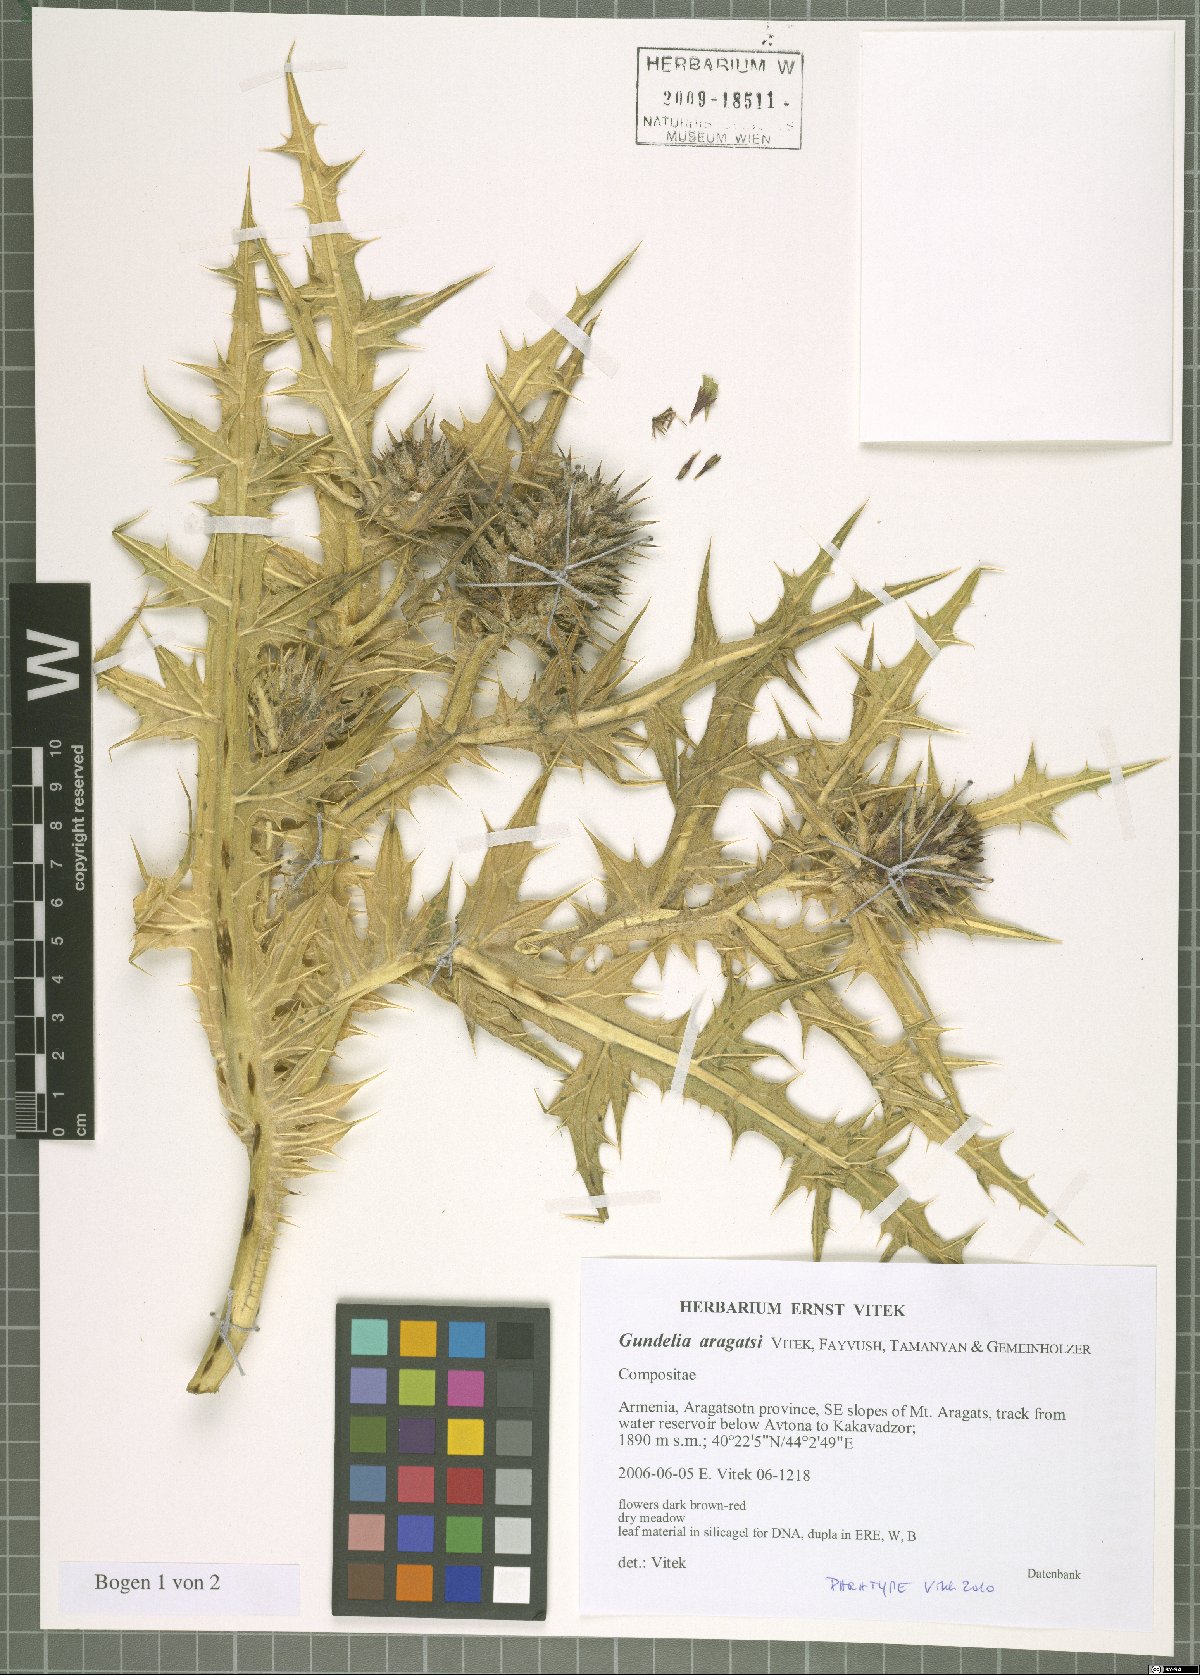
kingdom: Plantae
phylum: Tracheophyta
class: Magnoliopsida
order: Asterales
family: Asteraceae
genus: Gundelia
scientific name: Gundelia aragatsi
